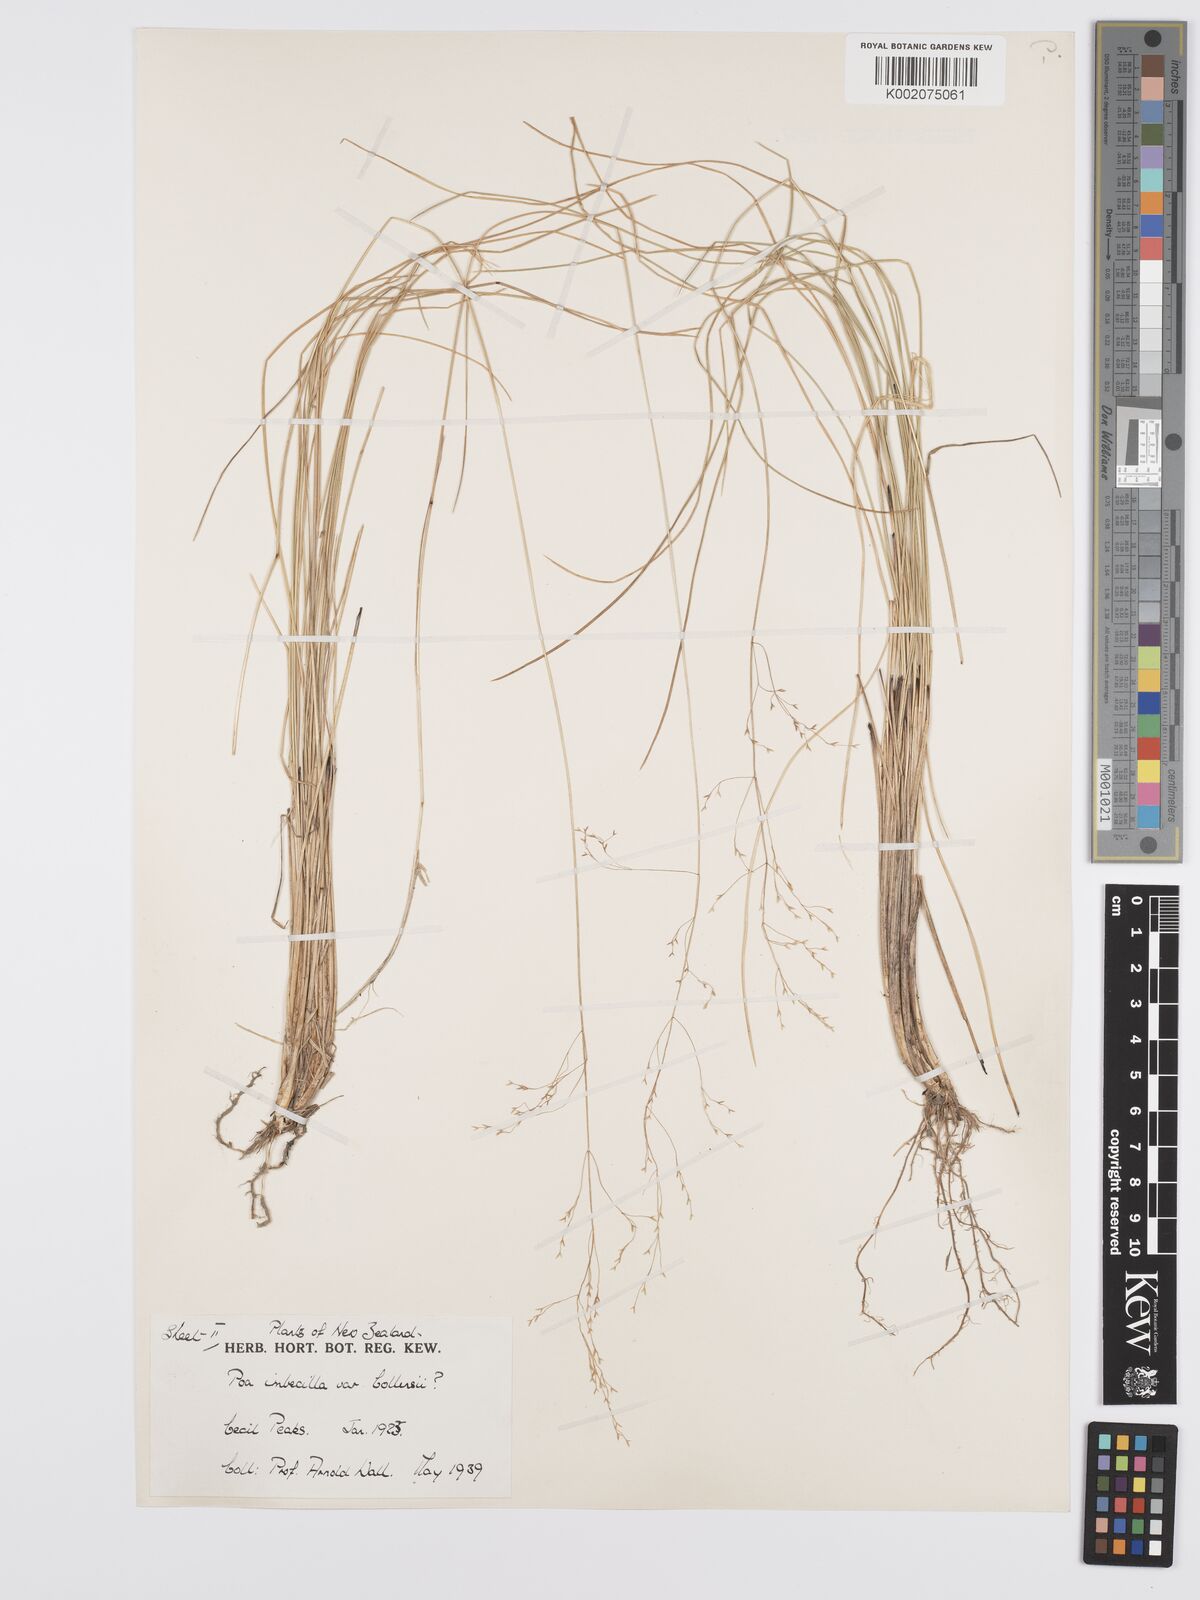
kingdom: Plantae
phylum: Tracheophyta
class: Liliopsida
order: Poales
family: Poaceae
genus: Poa
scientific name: Poa imbecilla
